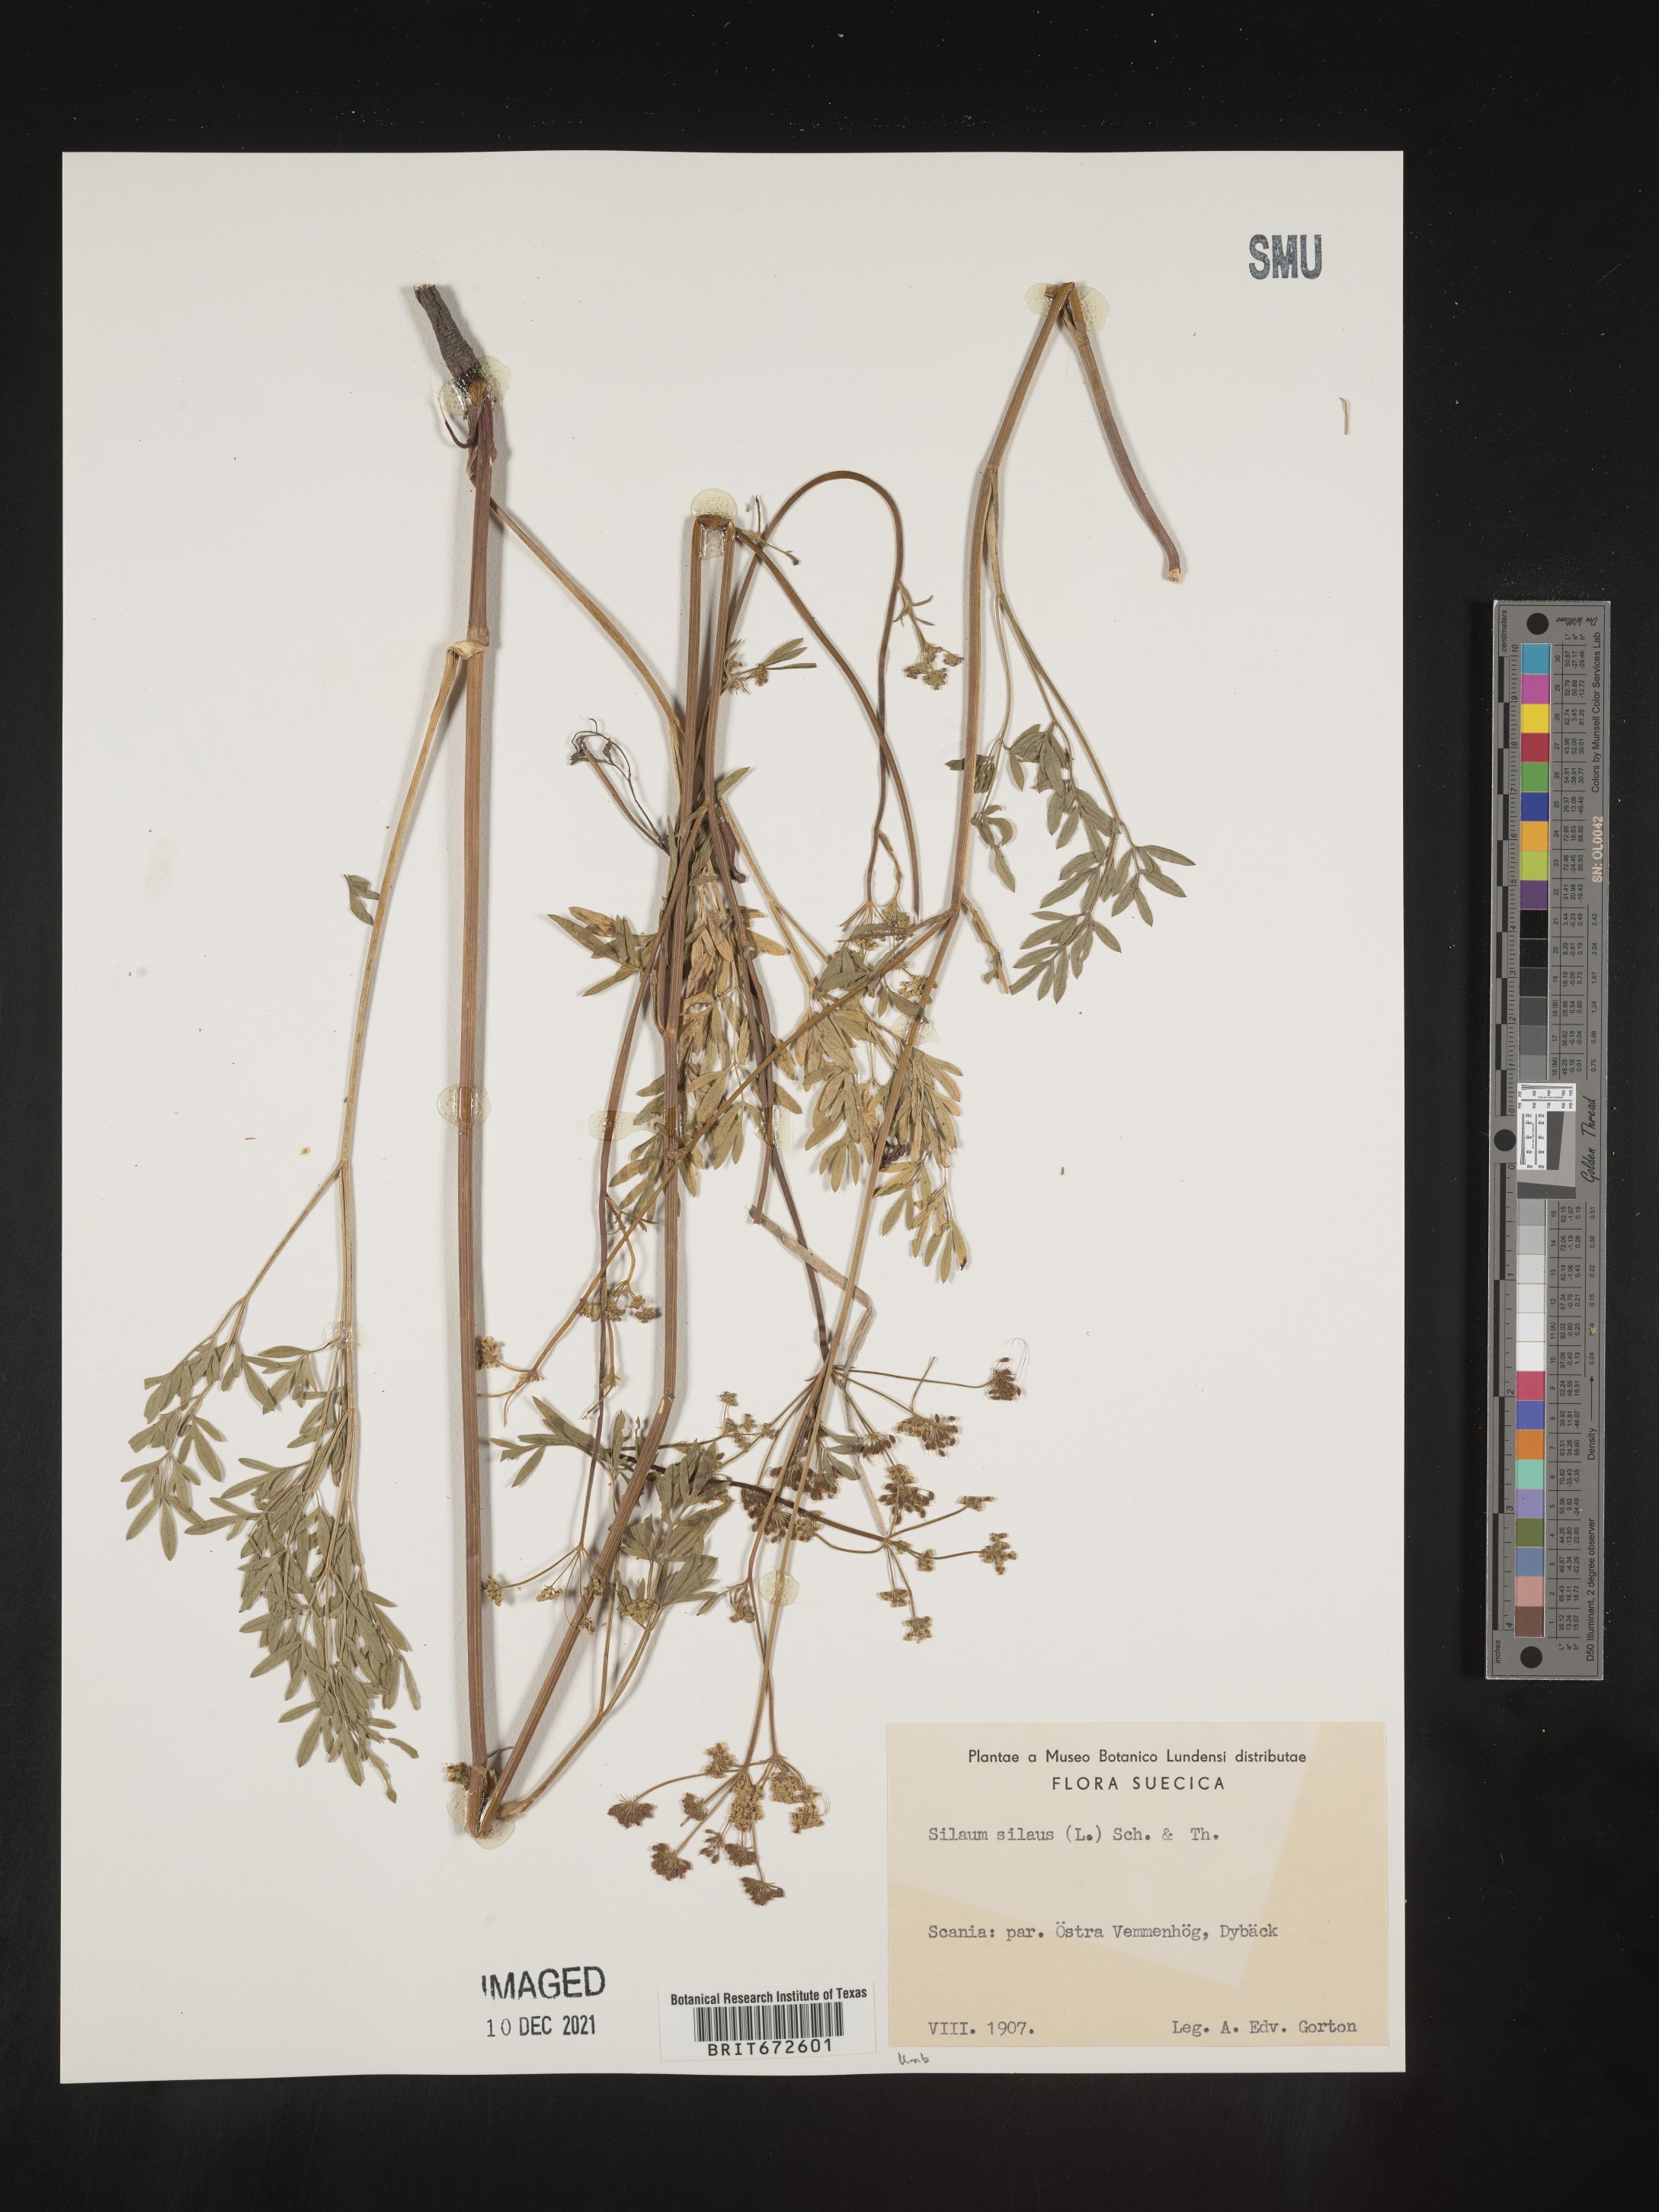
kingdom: Plantae
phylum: Tracheophyta
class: Magnoliopsida
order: Apiales
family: Apiaceae
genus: Silaum
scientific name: Silaum
